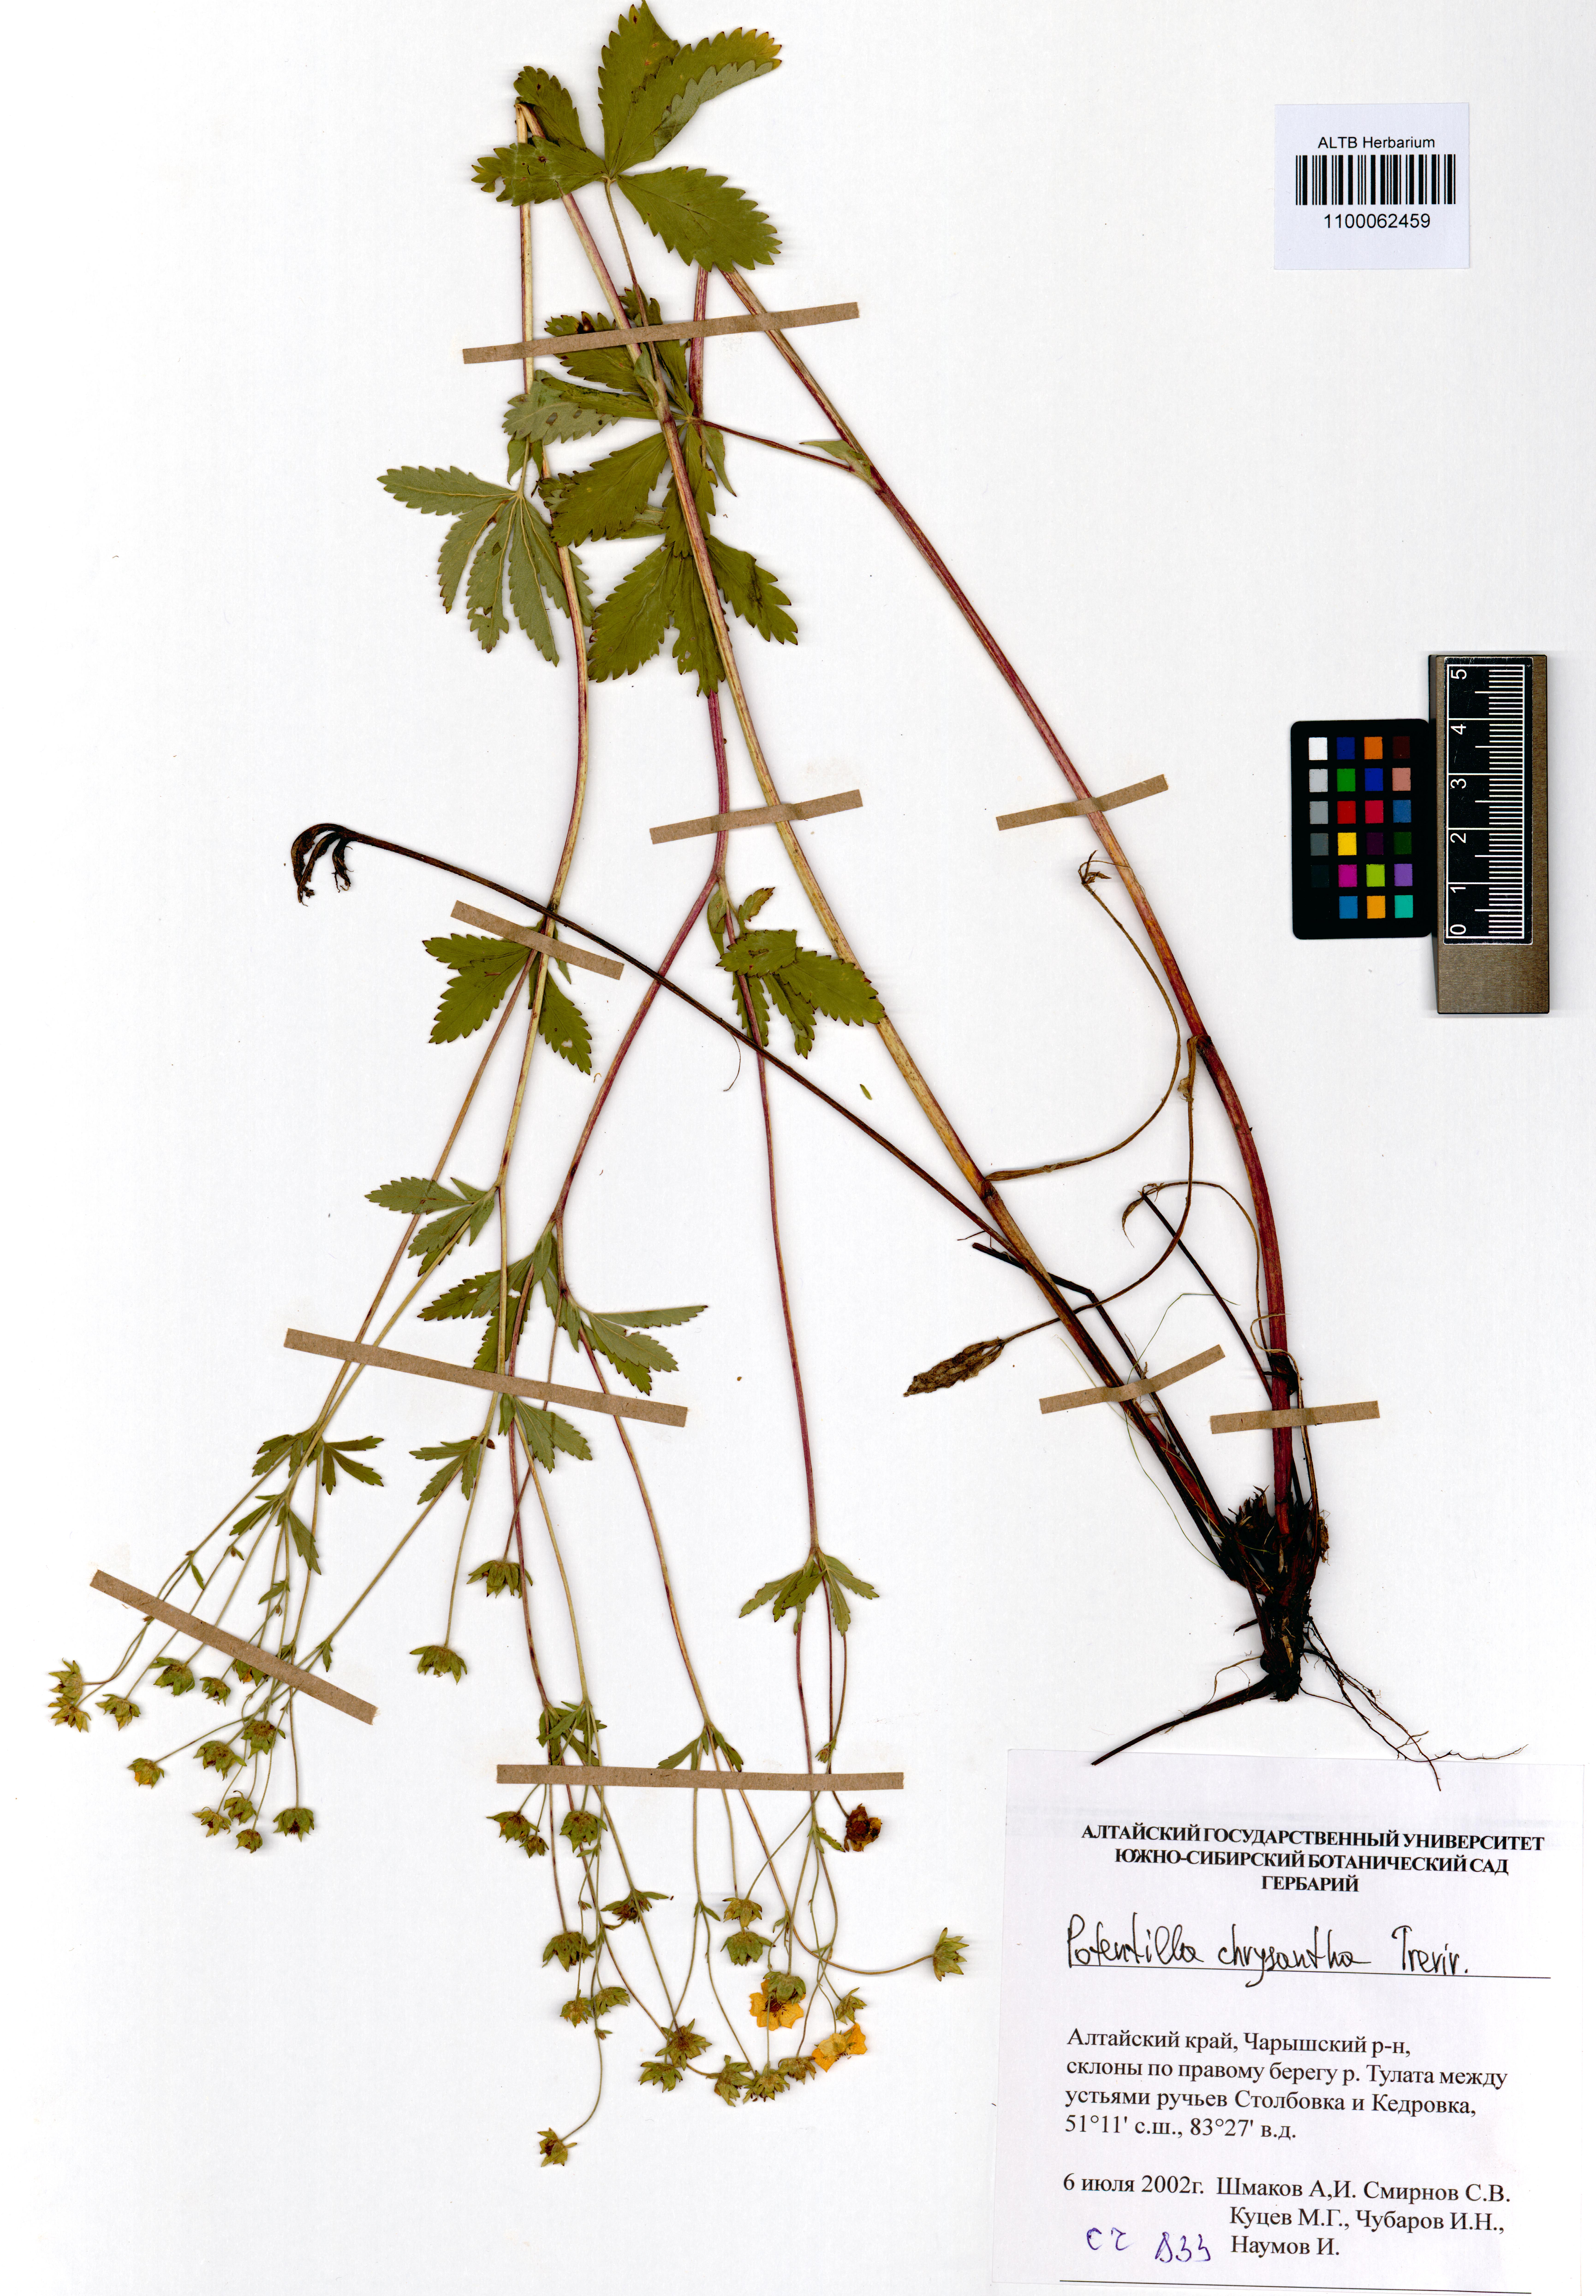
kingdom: Plantae
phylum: Tracheophyta
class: Magnoliopsida
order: Rosales
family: Rosaceae
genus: Potentilla
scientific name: Potentilla chrysantha
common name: Thuringian cinquefoil
